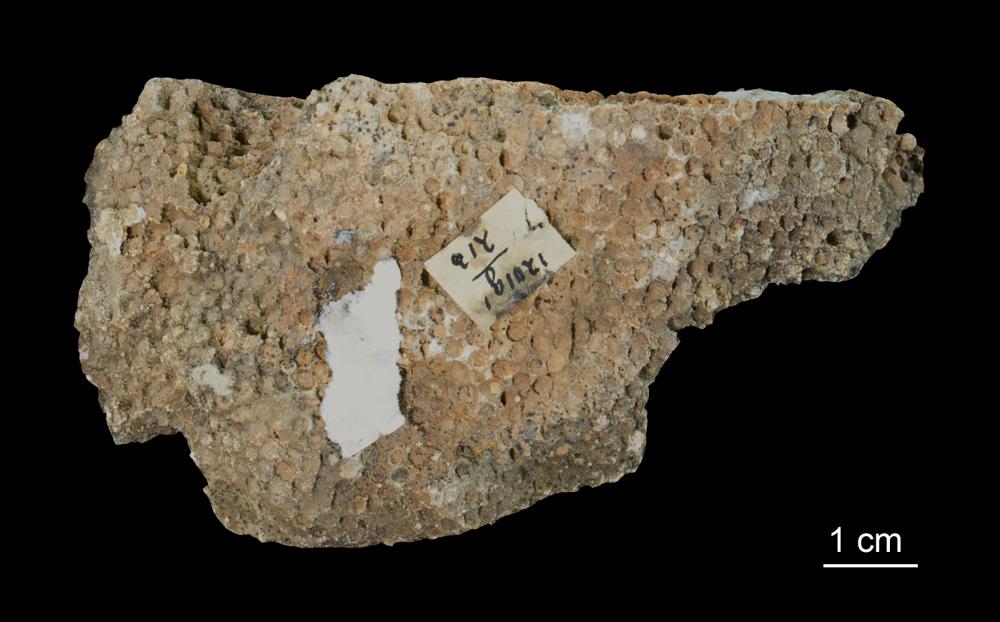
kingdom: Animalia
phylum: Cnidaria
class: Anthozoa
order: Heliolitina
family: Heliolitidae
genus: Heliolites
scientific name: Heliolites
